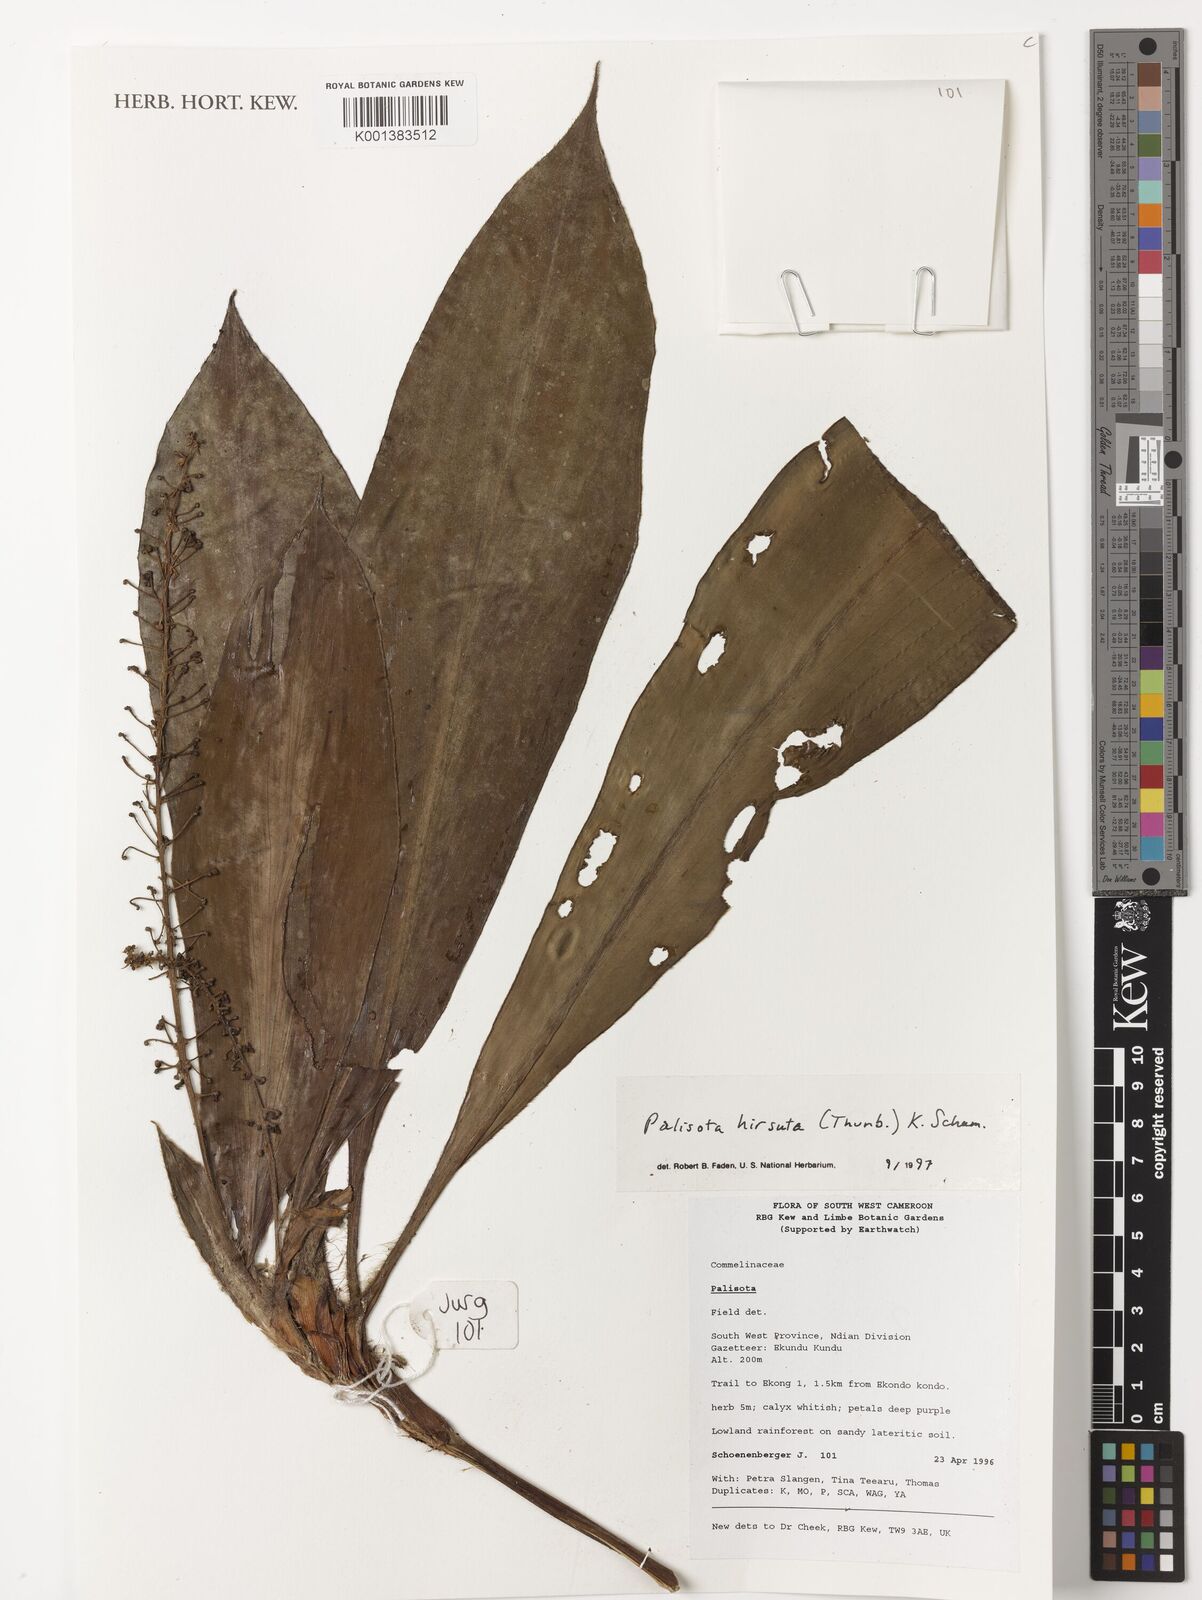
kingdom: Plantae
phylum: Tracheophyta
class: Liliopsida
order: Commelinales
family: Commelinaceae
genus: Palisota
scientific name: Palisota hirsuta
